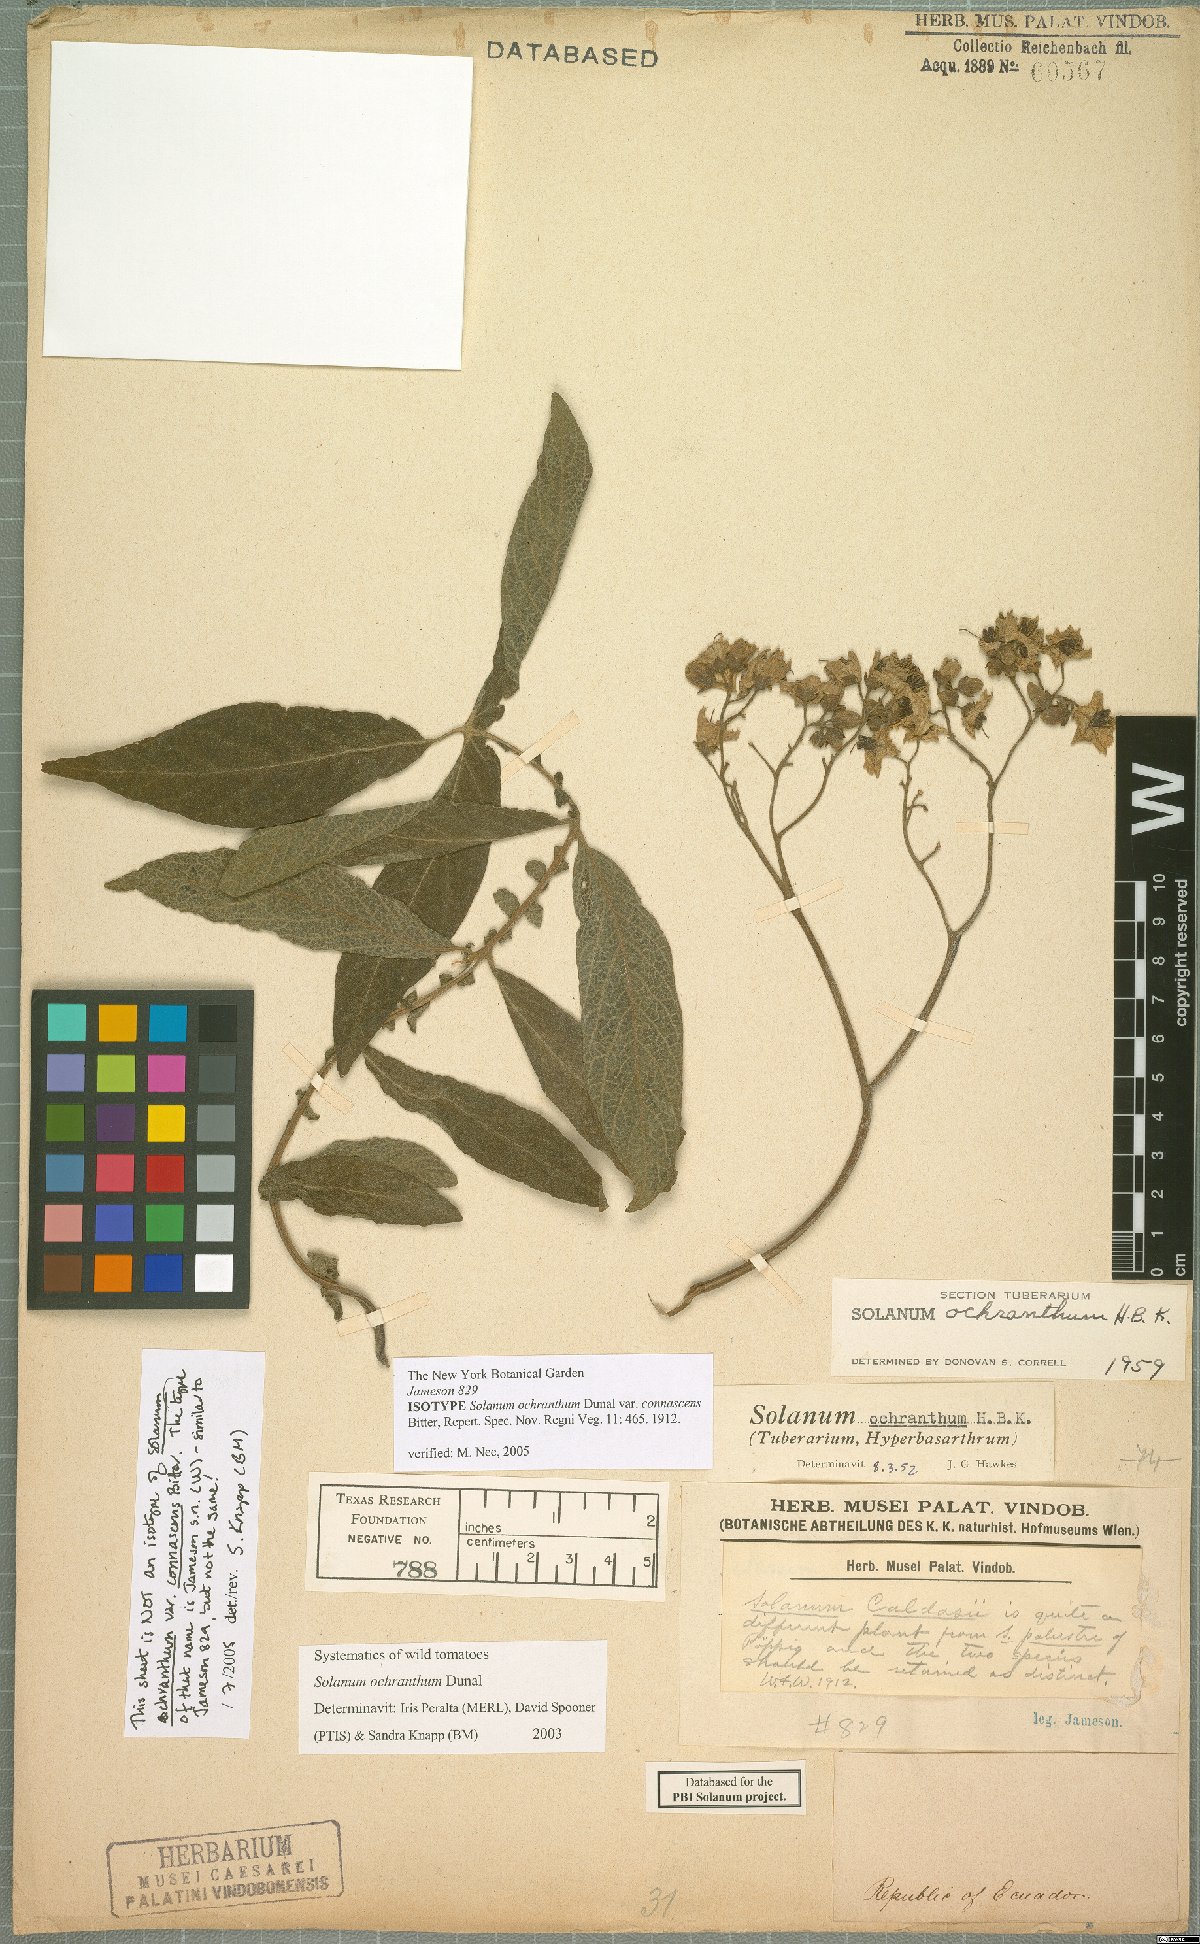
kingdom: Plantae
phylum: Tracheophyta
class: Magnoliopsida
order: Solanales
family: Solanaceae
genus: Solanum
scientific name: Solanum ochranthum
